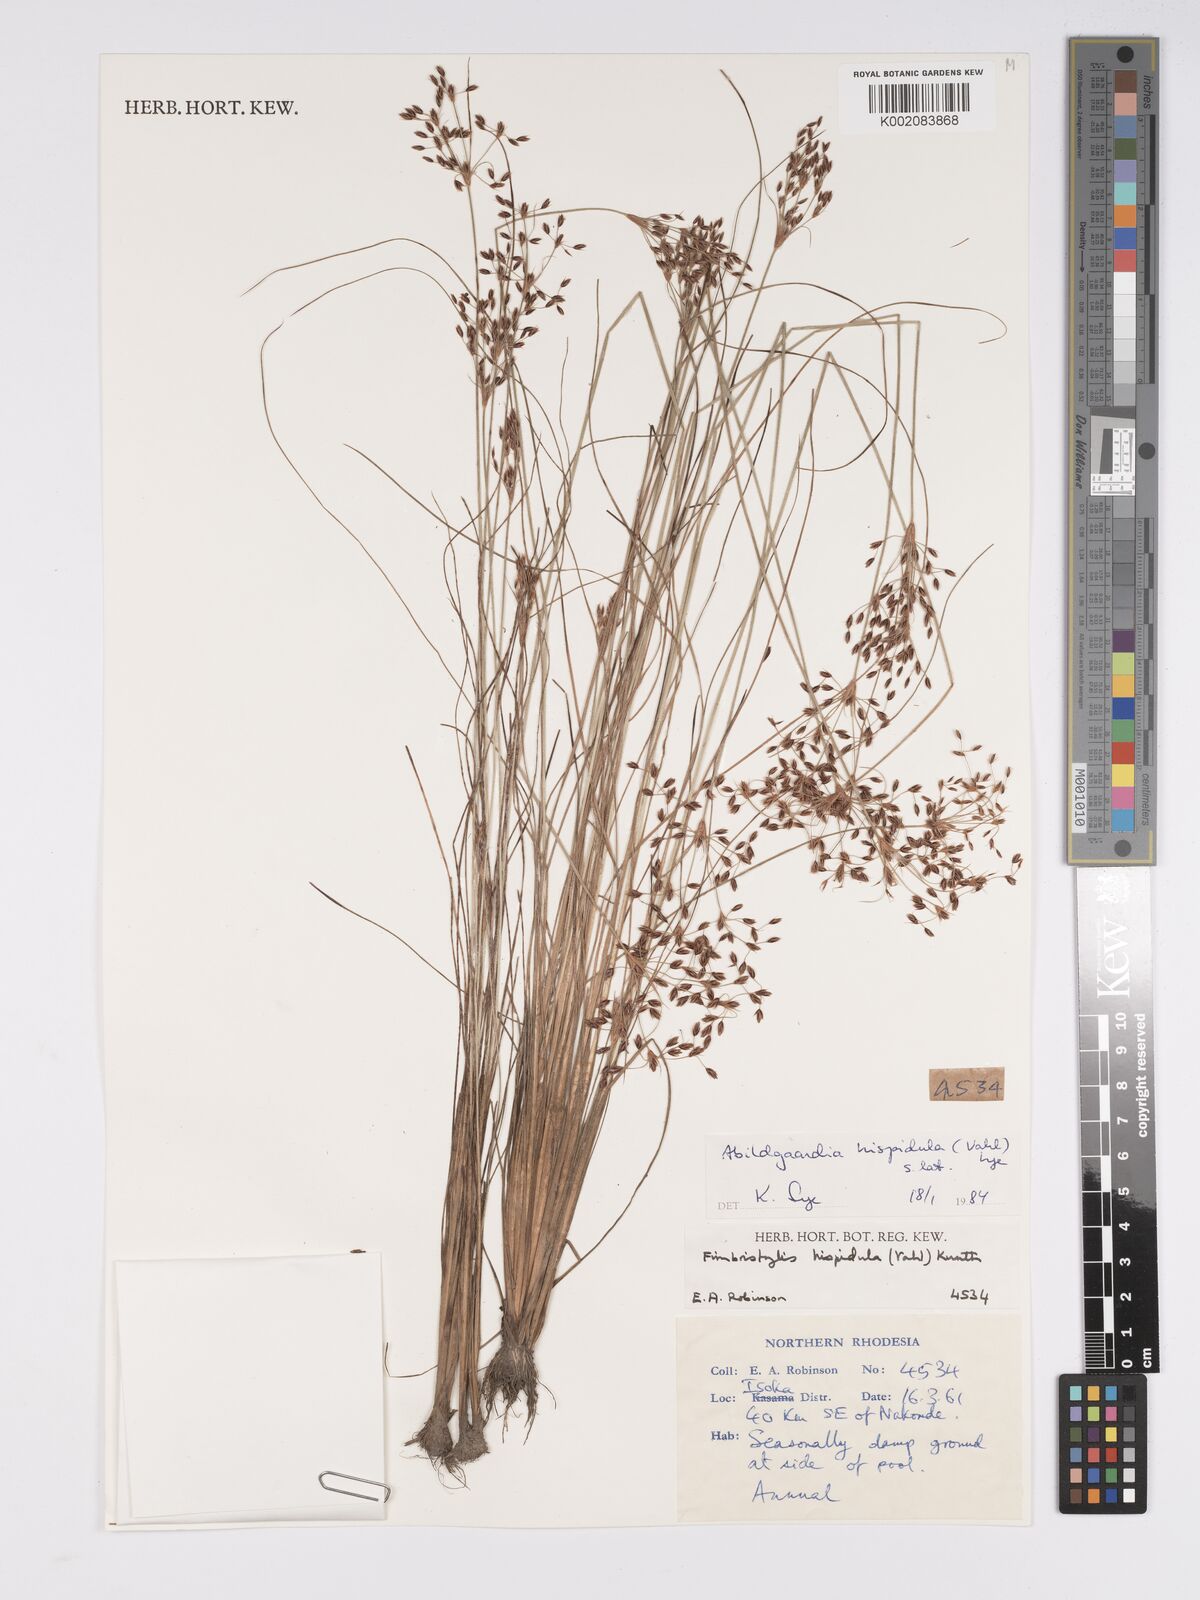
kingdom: Plantae
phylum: Tracheophyta
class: Liliopsida
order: Poales
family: Cyperaceae
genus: Bulbostylis
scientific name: Bulbostylis hispidula
